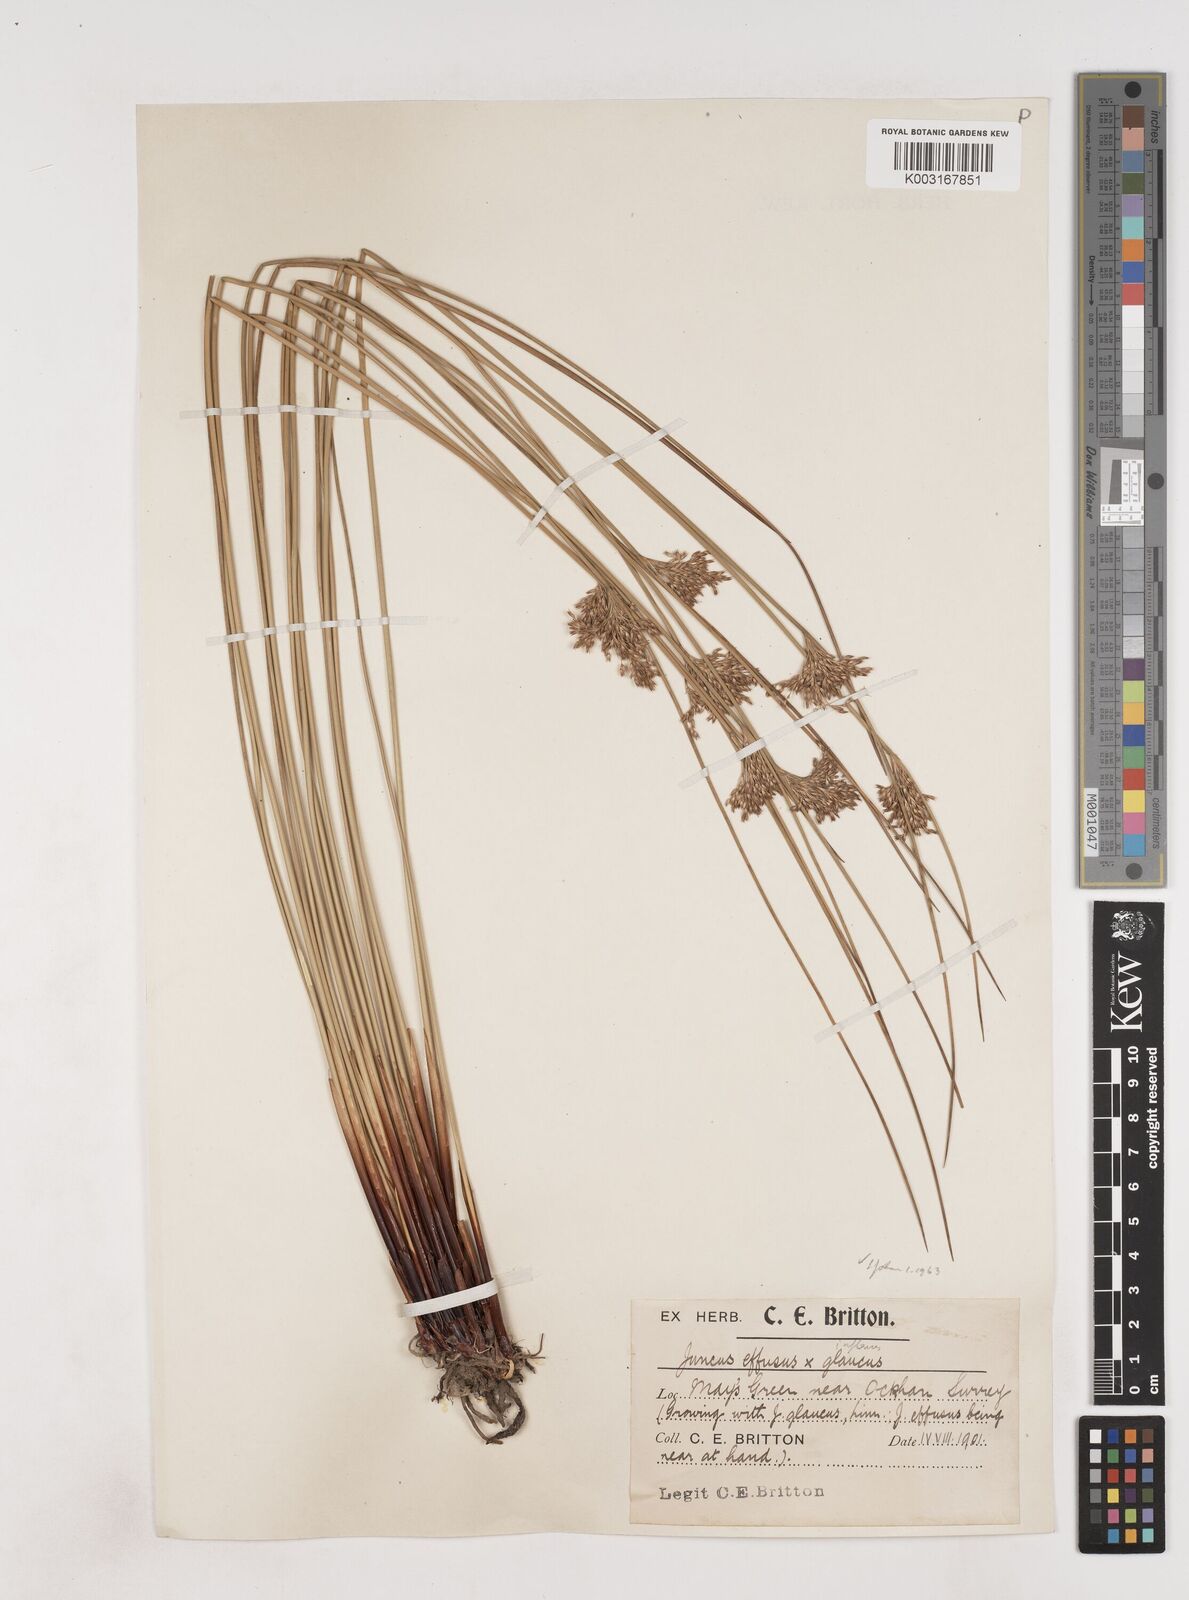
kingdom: Plantae
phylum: Tracheophyta
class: Liliopsida
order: Poales
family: Juncaceae
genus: Juncus
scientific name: Juncus effusus
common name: Soft rush
